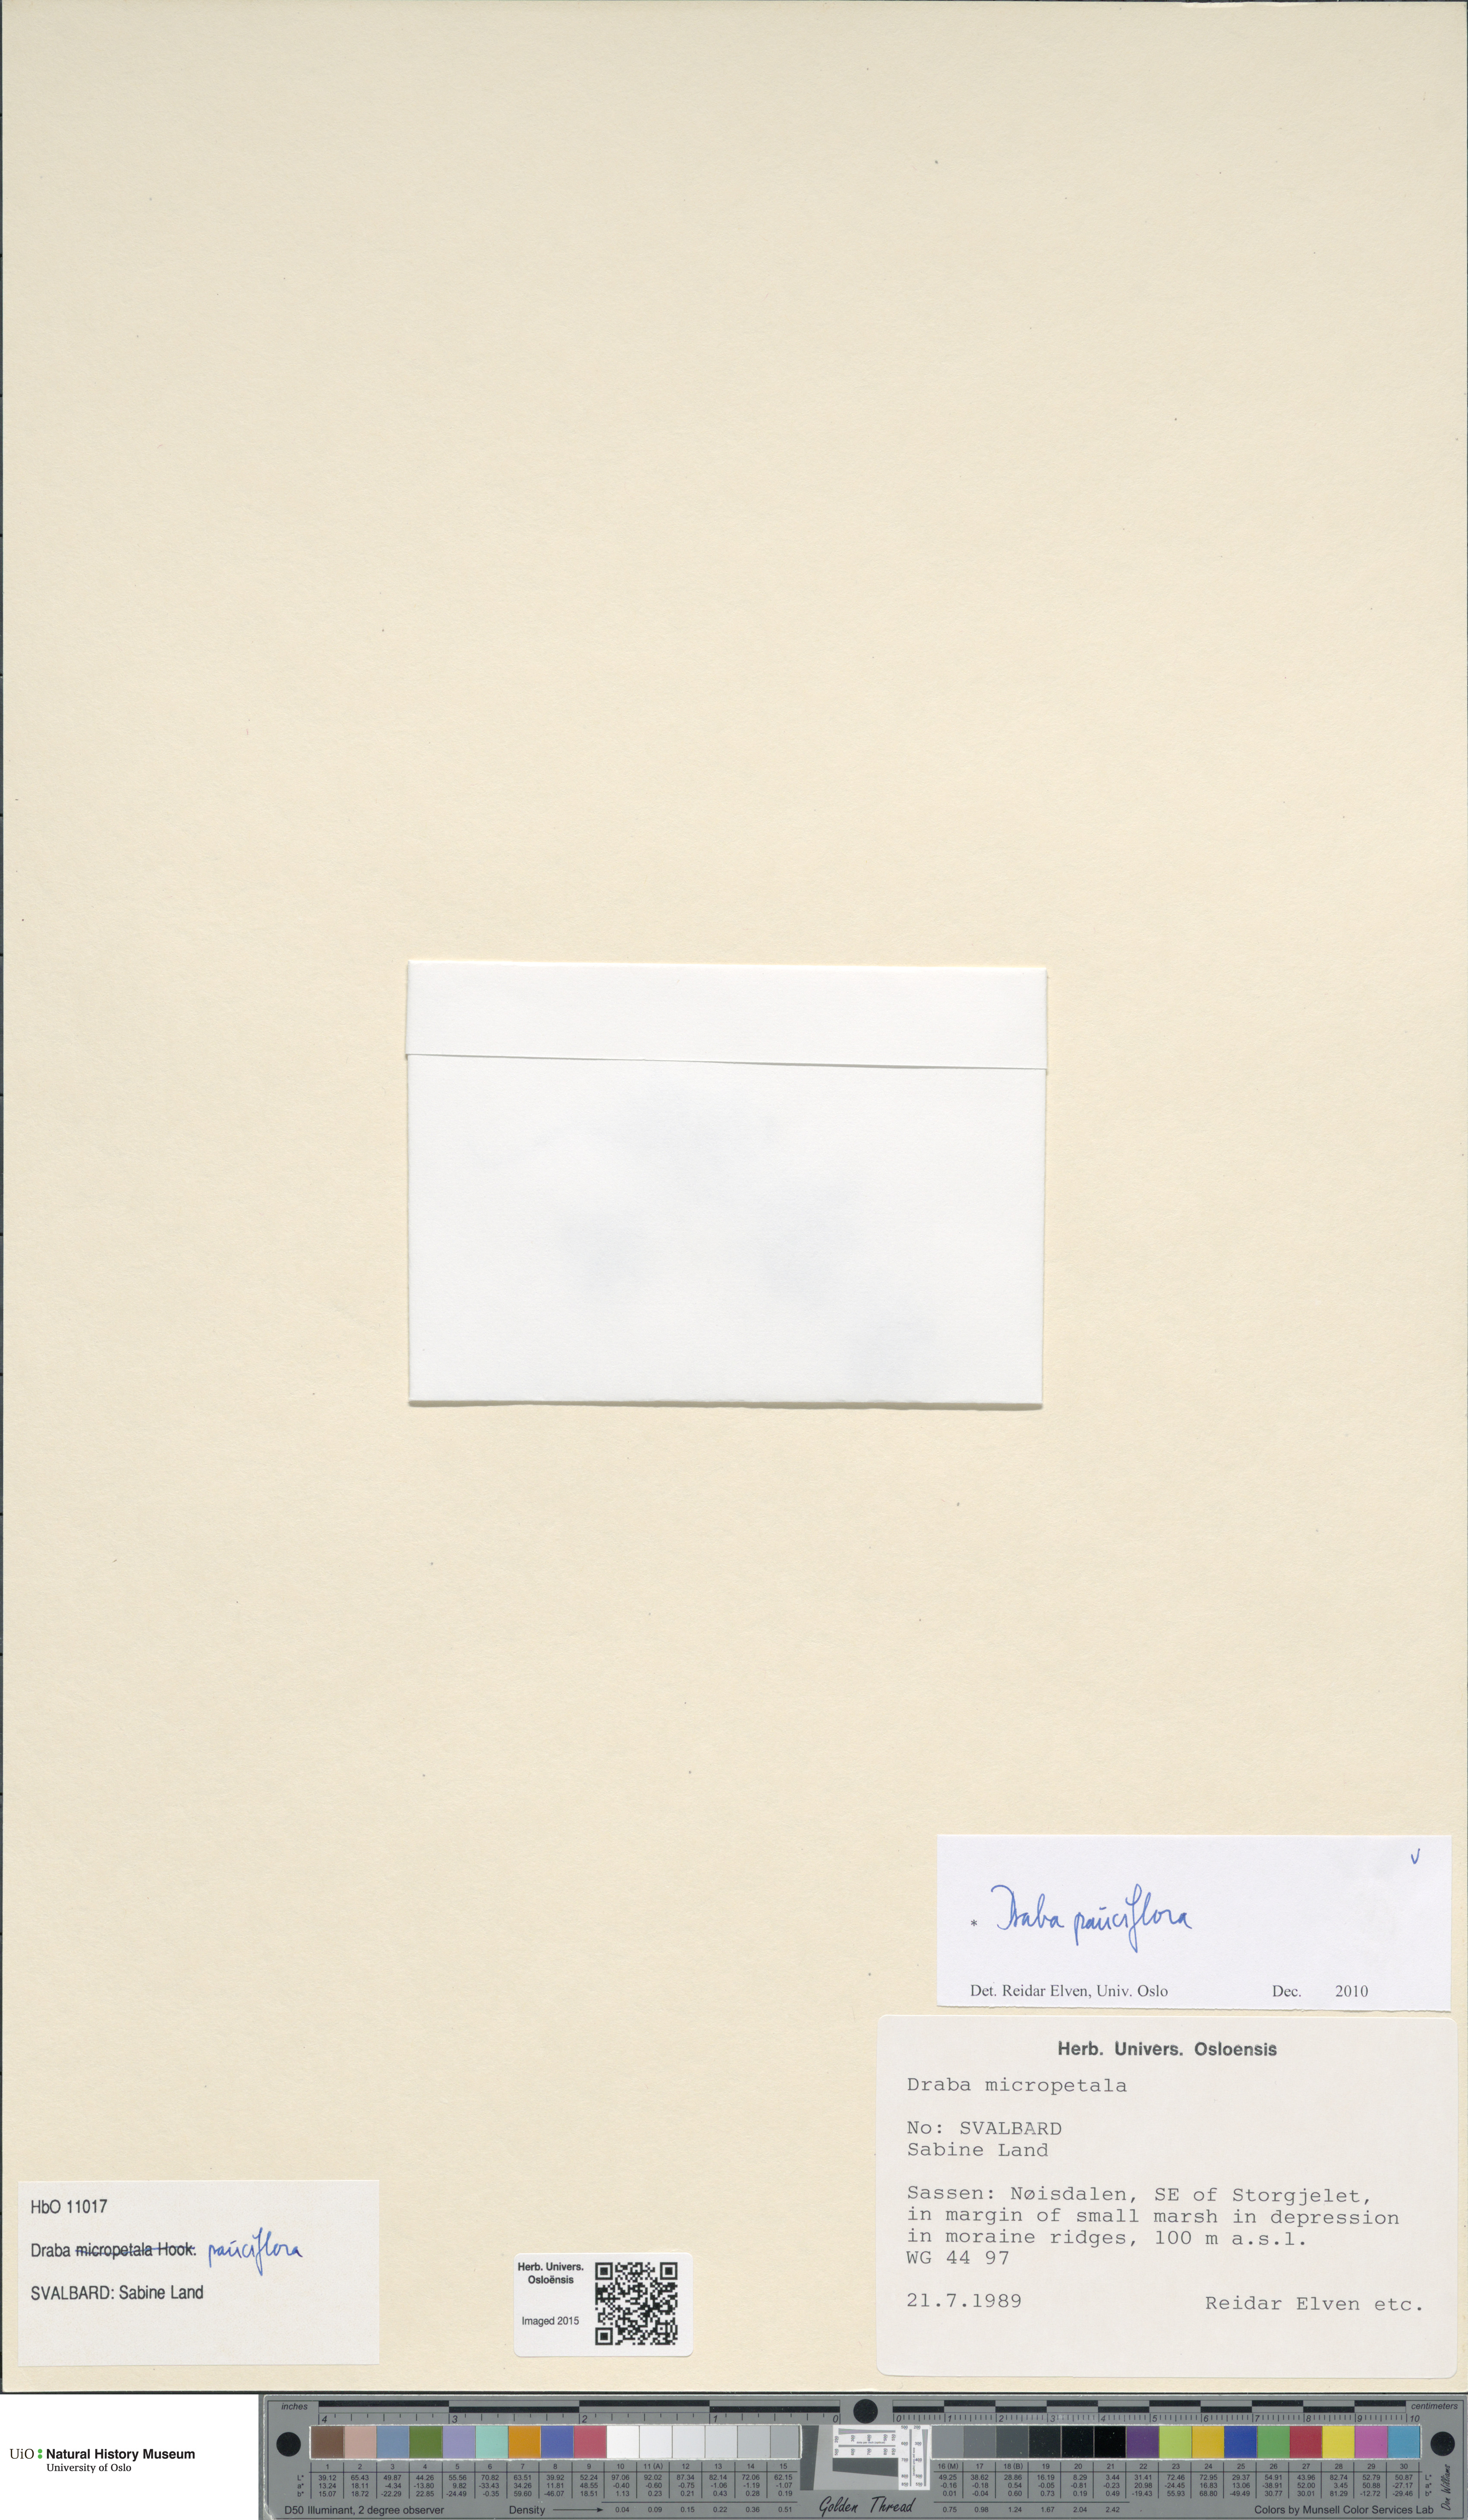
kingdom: Plantae
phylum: Tracheophyta
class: Magnoliopsida
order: Brassicales
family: Brassicaceae
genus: Draba
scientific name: Draba pauciflora
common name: Few-flowered draba
